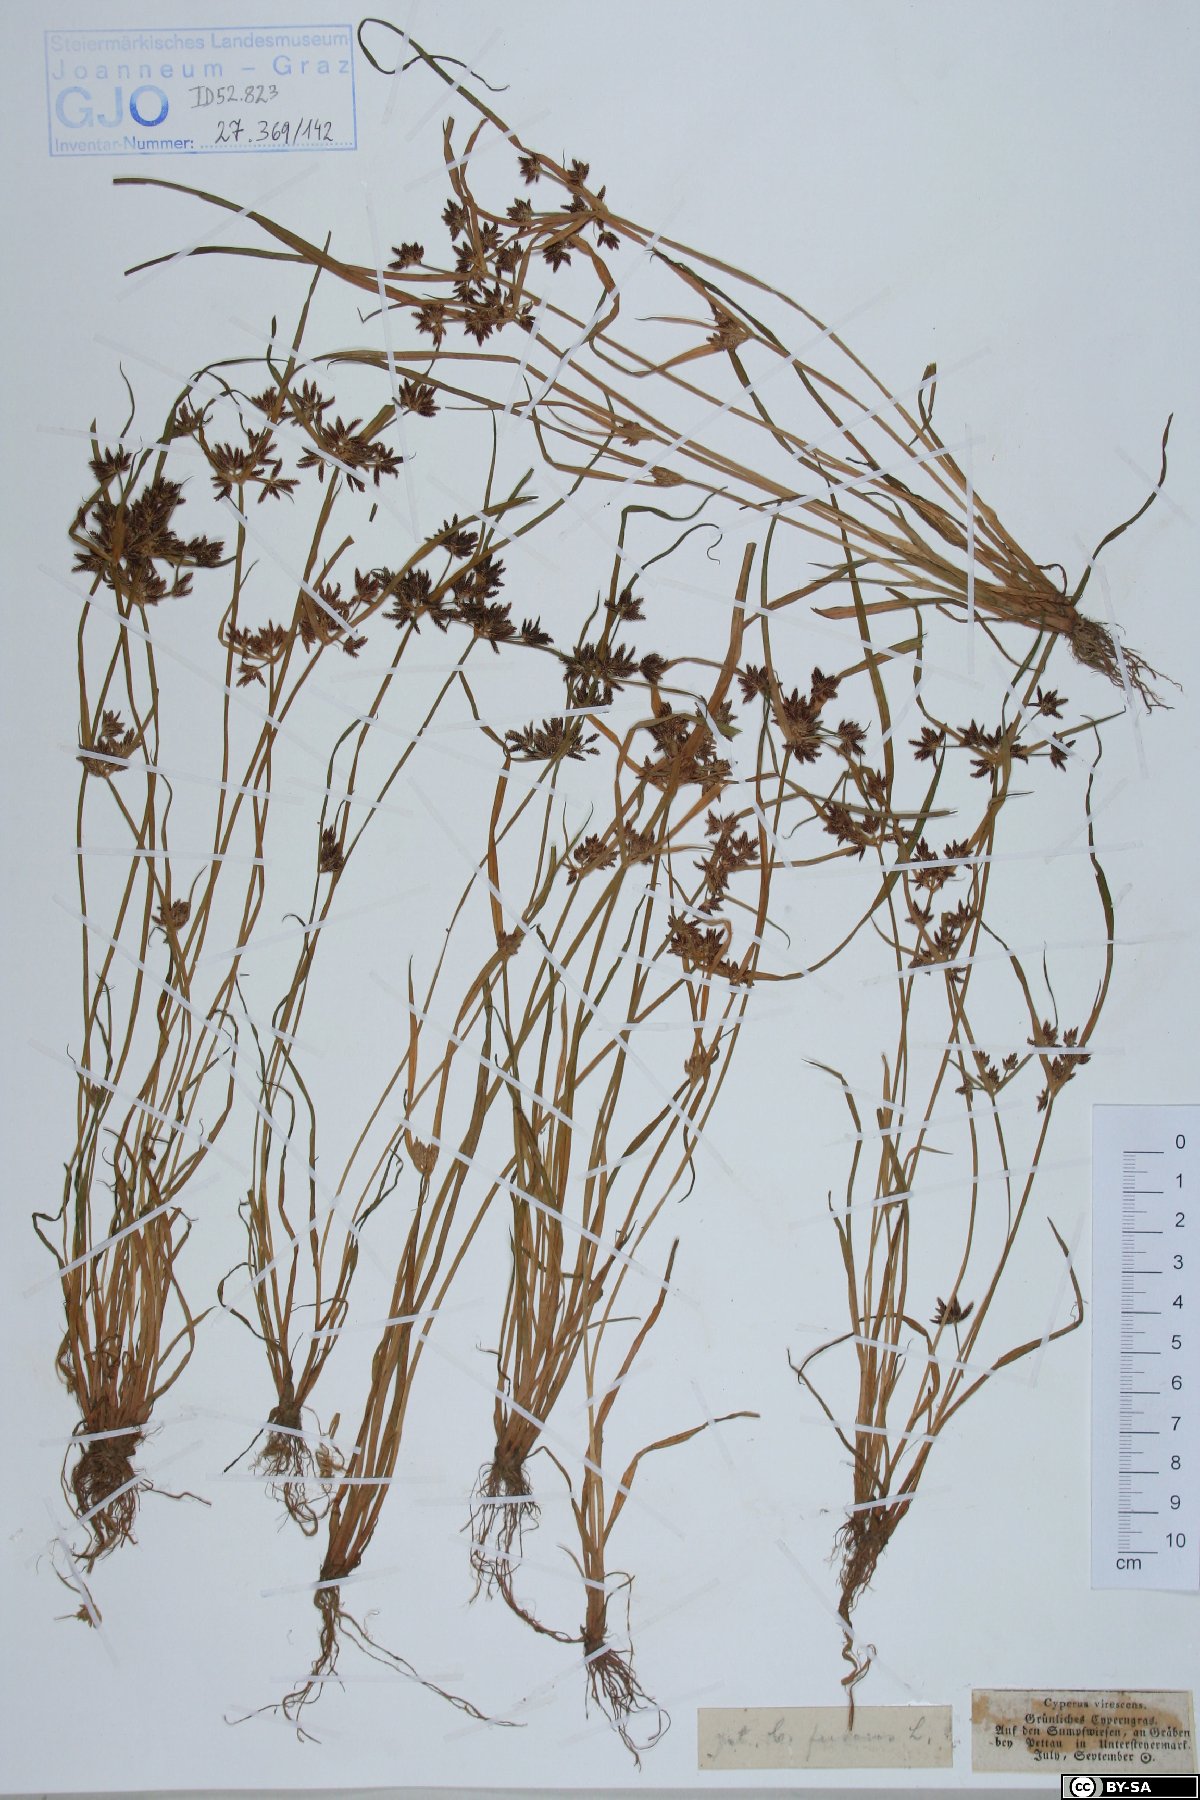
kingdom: Plantae
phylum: Tracheophyta
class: Liliopsida
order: Poales
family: Cyperaceae
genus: Cyperus
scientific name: Cyperus fuscus
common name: Brown galingale
